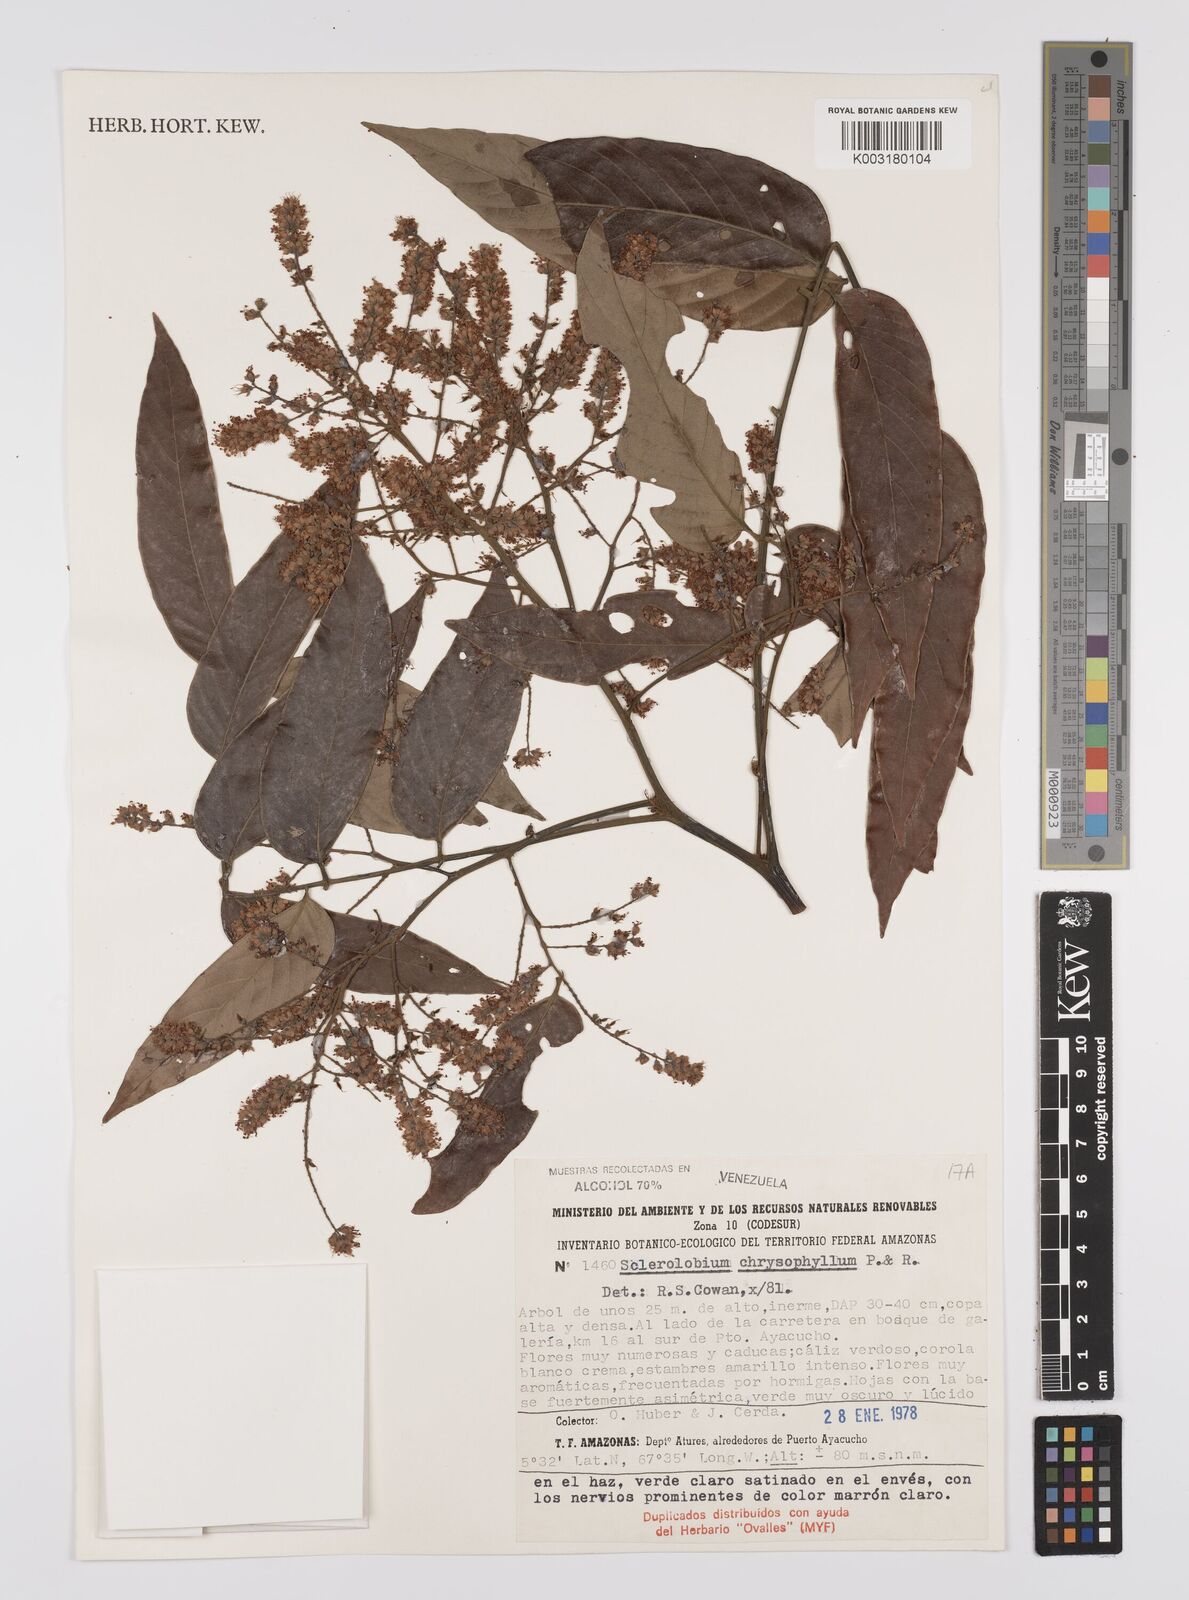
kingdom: Plantae
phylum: Tracheophyta
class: Magnoliopsida
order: Fabales
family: Fabaceae
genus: Tachigali
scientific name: Tachigali chrysophylla
